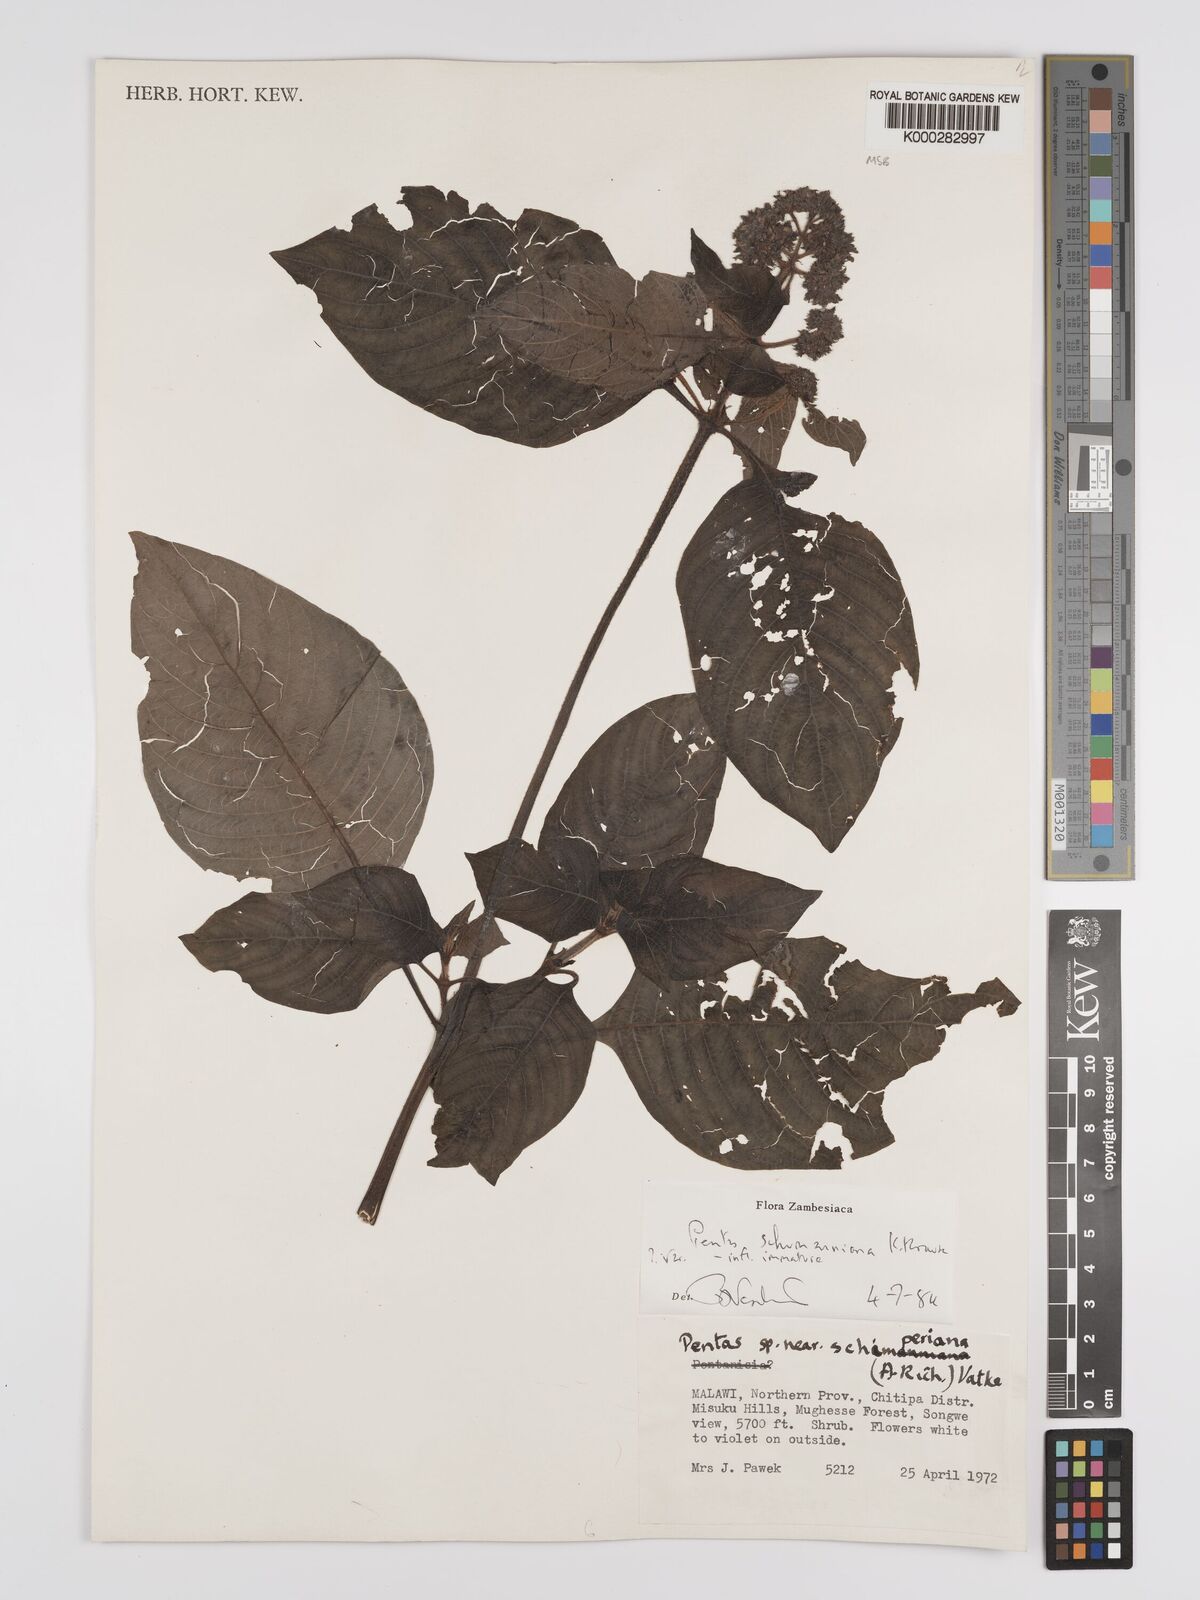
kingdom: Plantae
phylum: Tracheophyta
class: Magnoliopsida
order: Gentianales
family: Rubiaceae
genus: Phyllopentas
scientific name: Phyllopentas schumanniana
